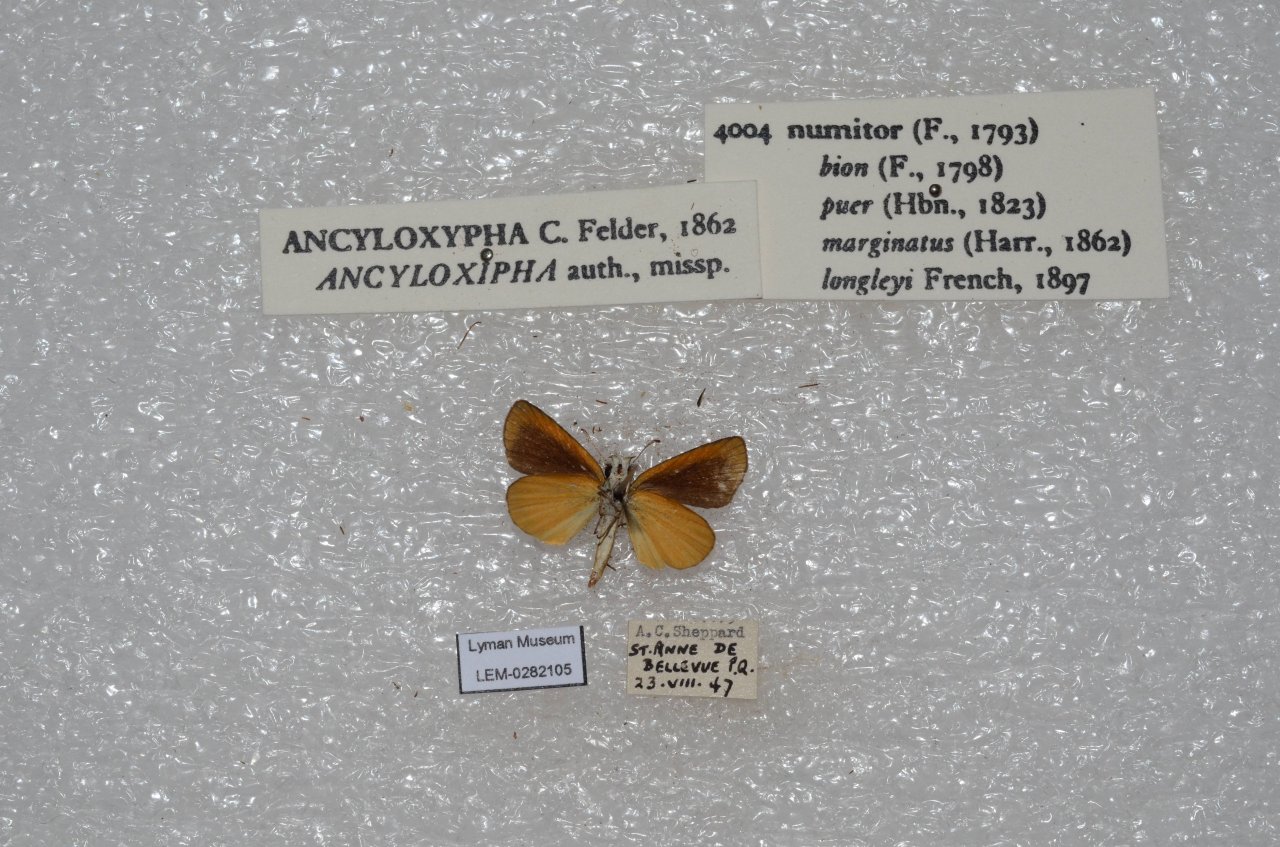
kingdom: Animalia
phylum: Arthropoda
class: Insecta
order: Lepidoptera
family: Hesperiidae
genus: Ancyloxypha
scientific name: Ancyloxypha numitor
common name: Least Skipper
